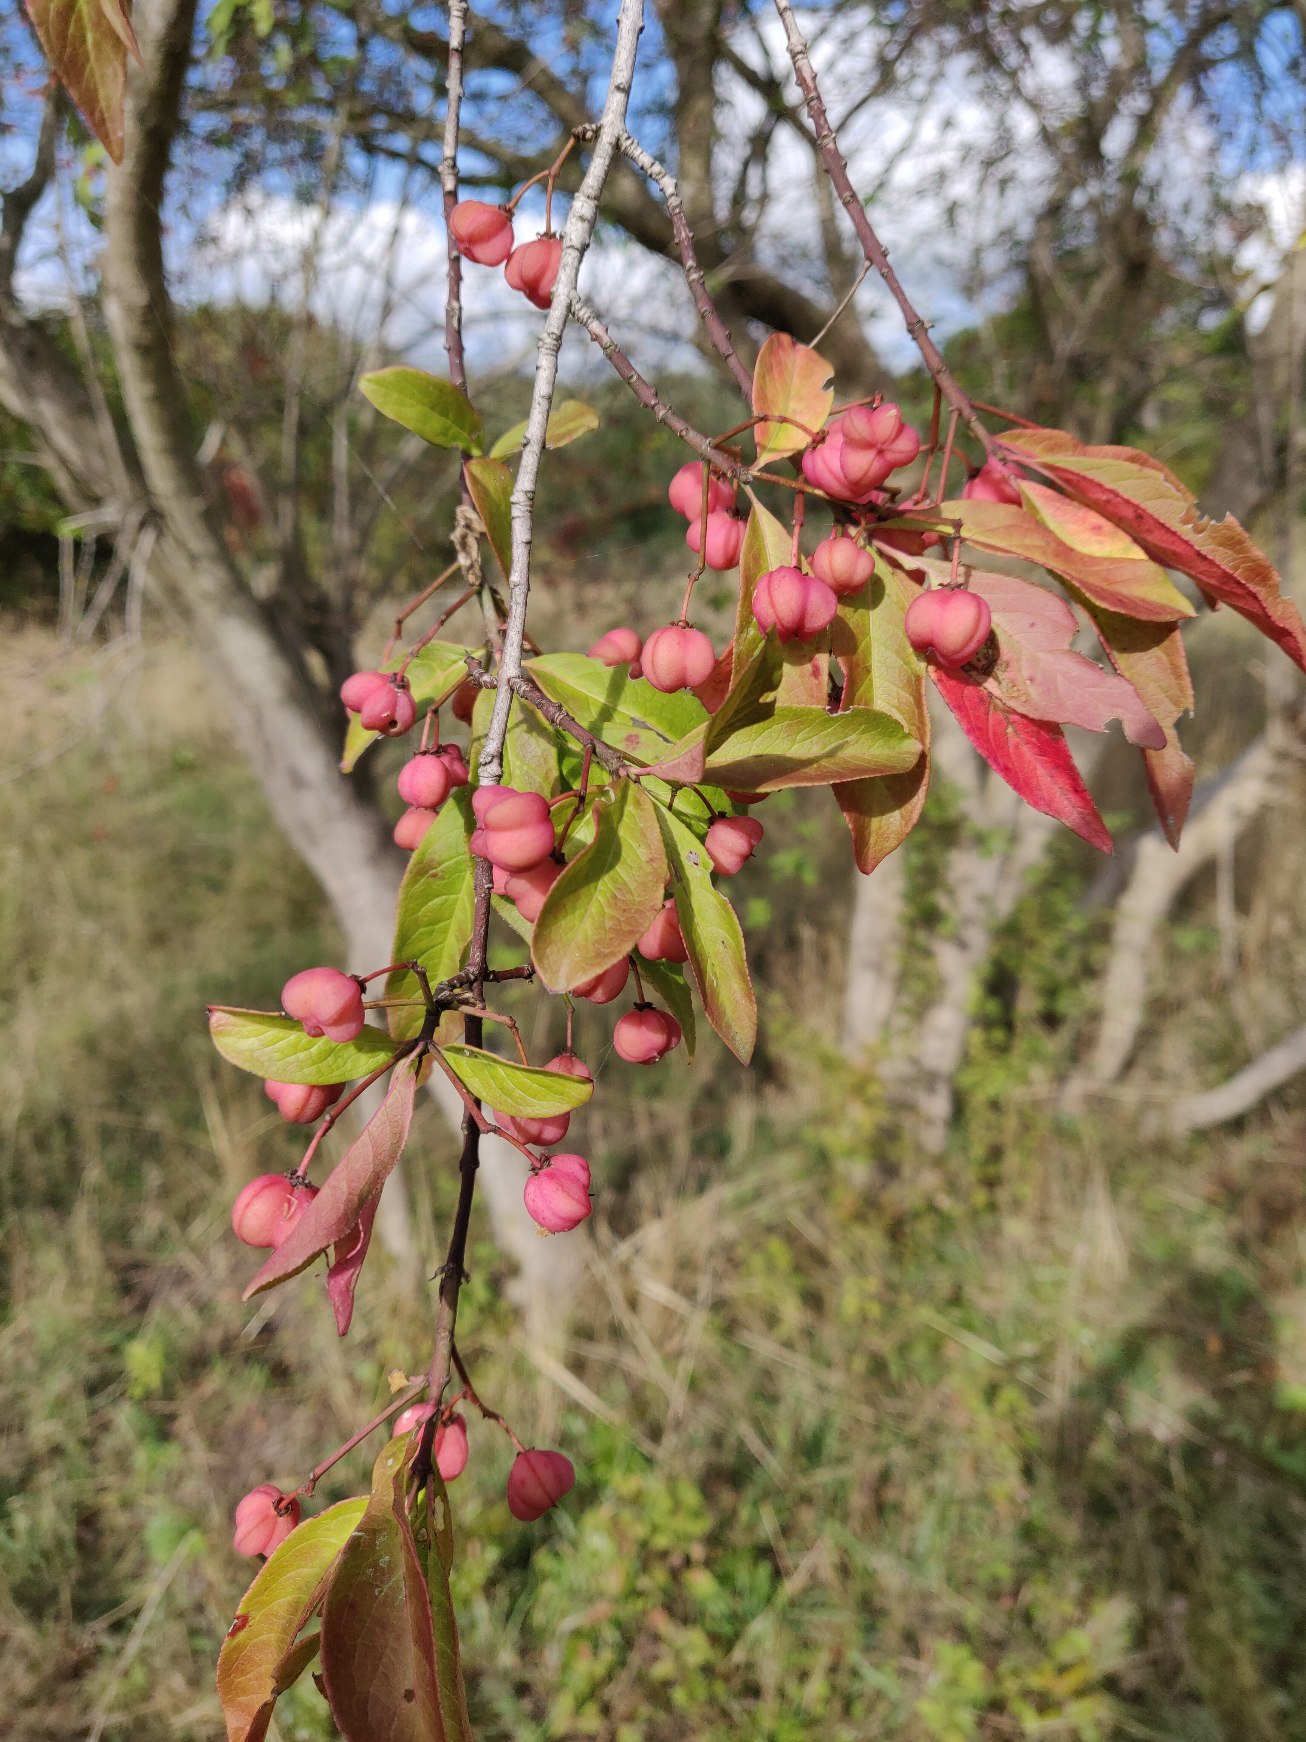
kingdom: Plantae
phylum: Tracheophyta
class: Magnoliopsida
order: Celastrales
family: Celastraceae
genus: Euonymus
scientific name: Euonymus europaeus
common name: Benved
